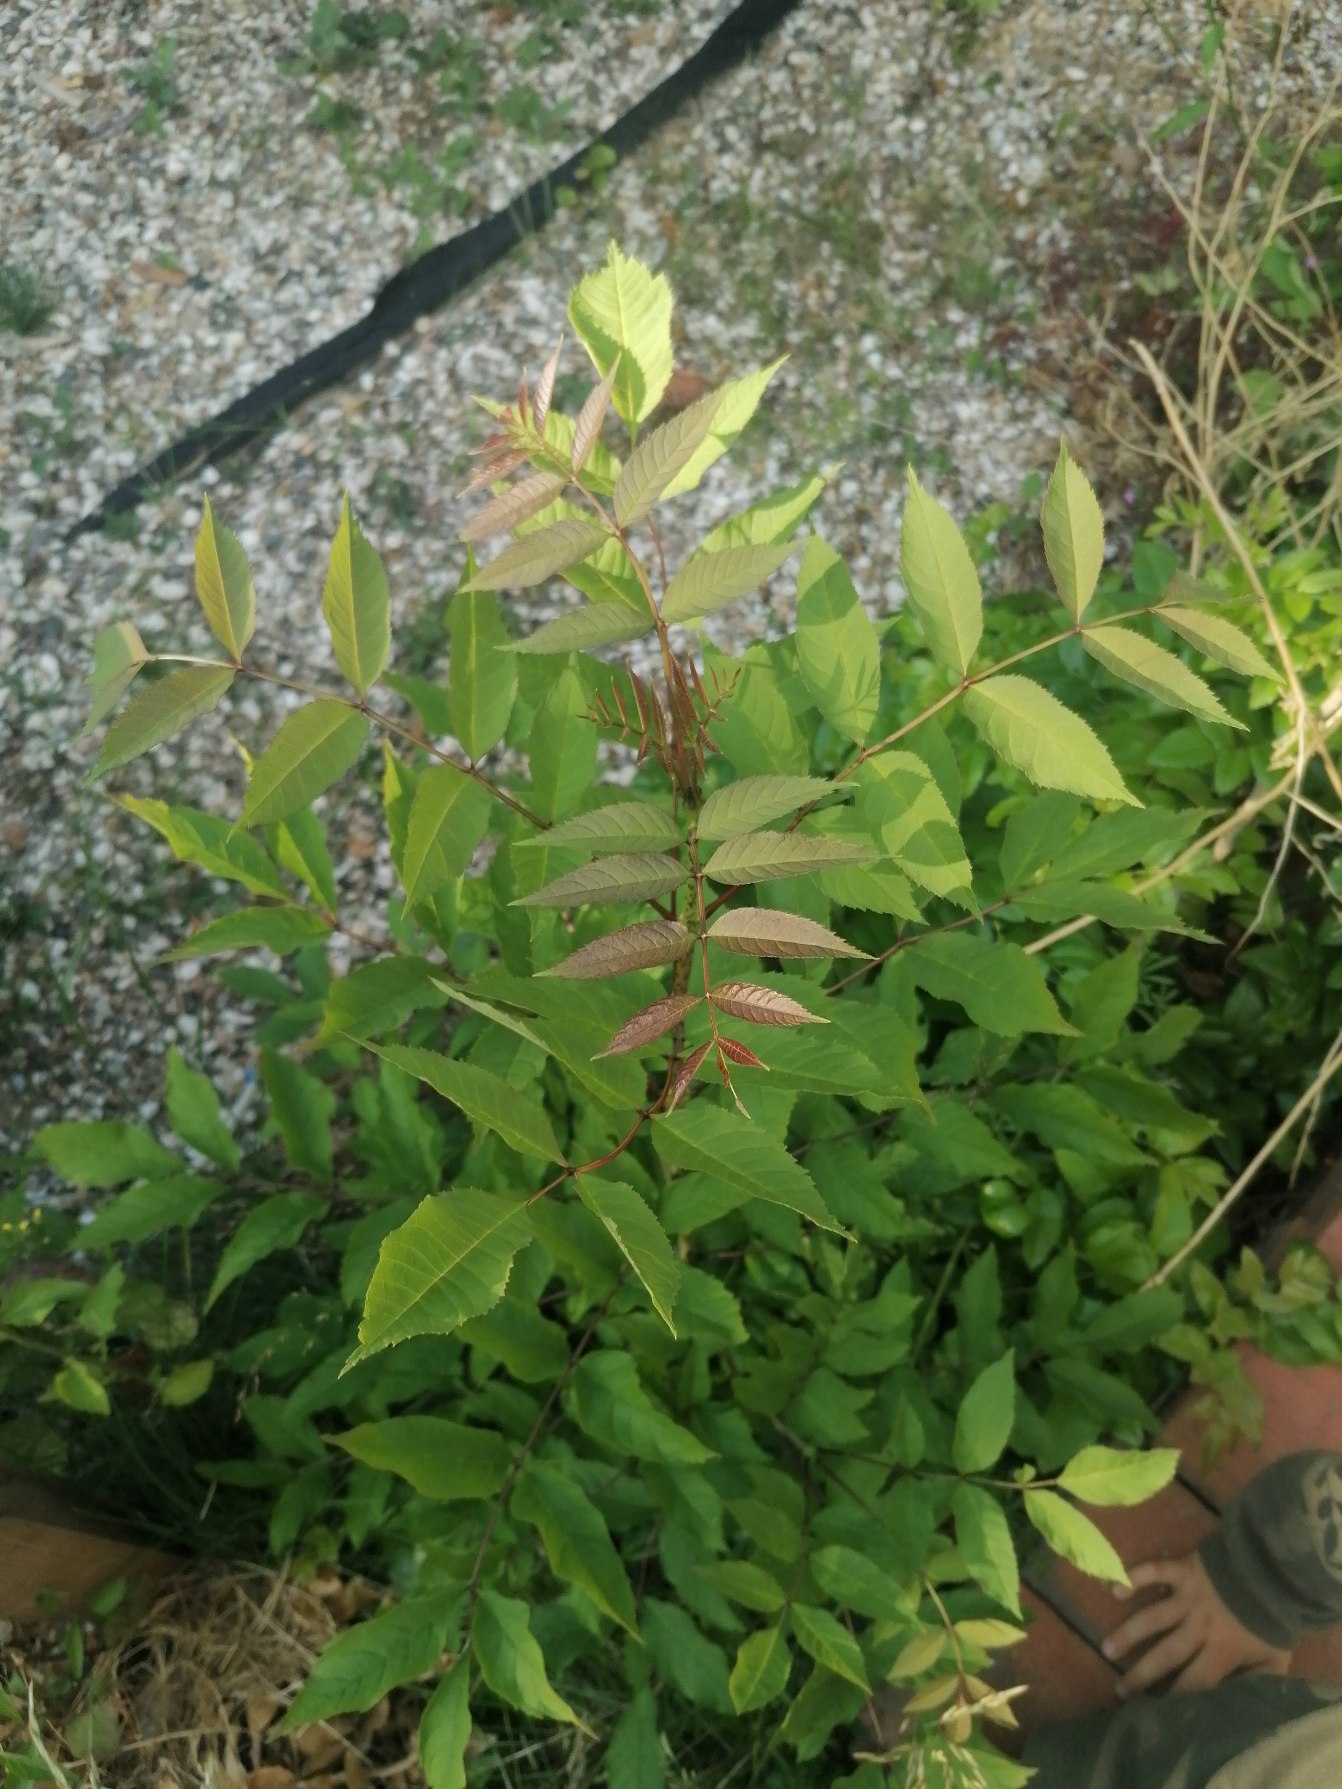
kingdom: Plantae
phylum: Tracheophyta
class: Magnoliopsida
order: Lamiales
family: Oleaceae
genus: Fraxinus
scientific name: Fraxinus excelsior
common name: Ask
